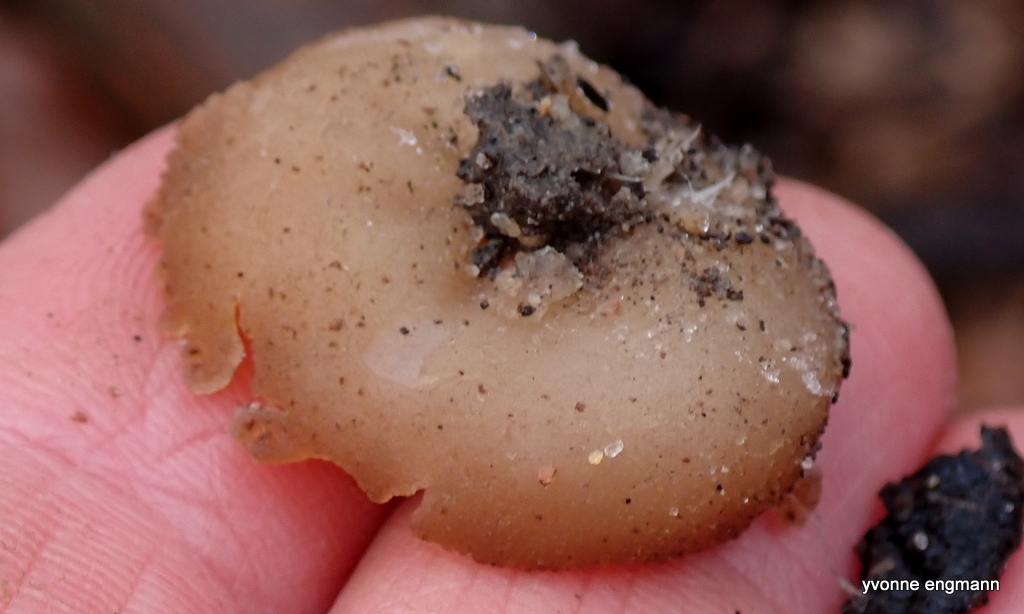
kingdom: Fungi
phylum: Ascomycota
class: Pezizomycetes
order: Pezizales
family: Pezizaceae
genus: Peziza
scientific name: Peziza
